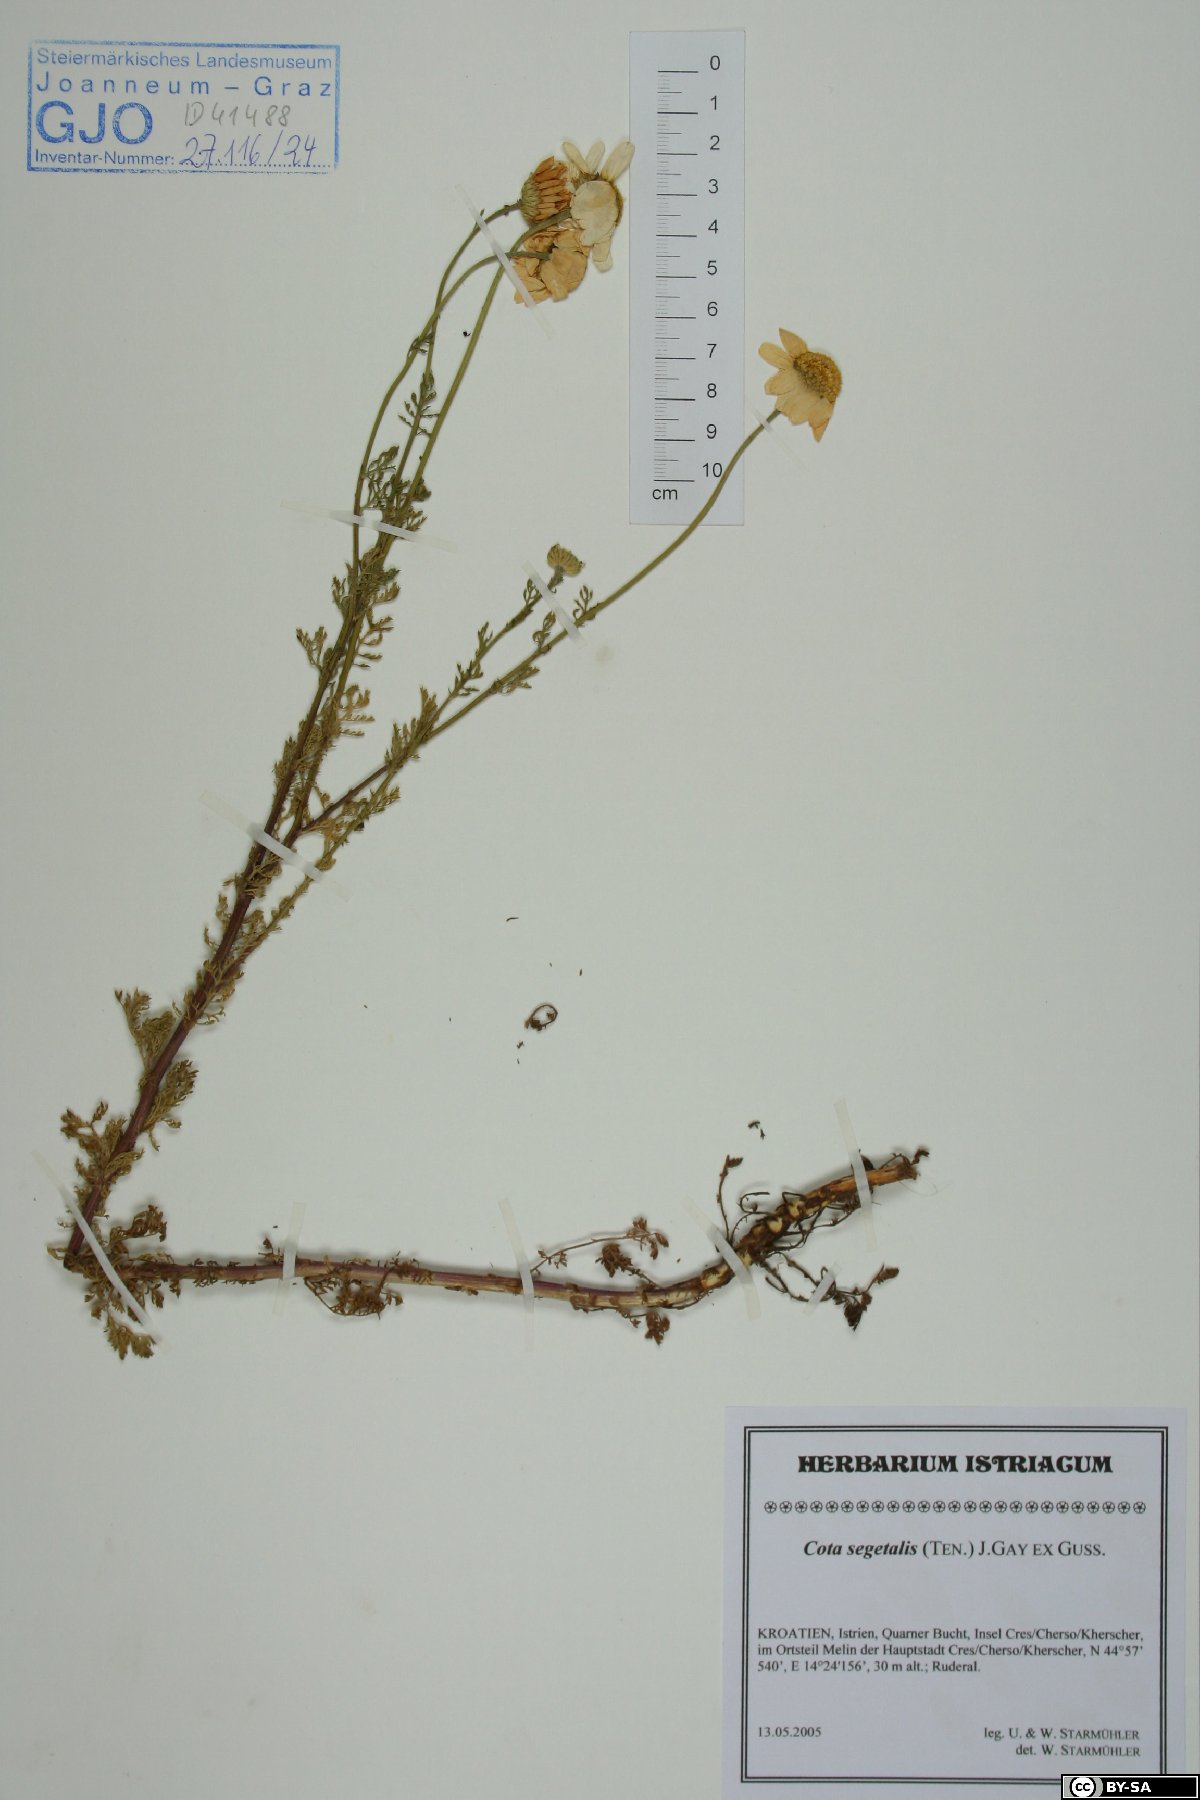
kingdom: Plantae
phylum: Tracheophyta
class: Magnoliopsida
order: Asterales
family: Asteraceae
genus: Cota
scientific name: Cota segetalis
